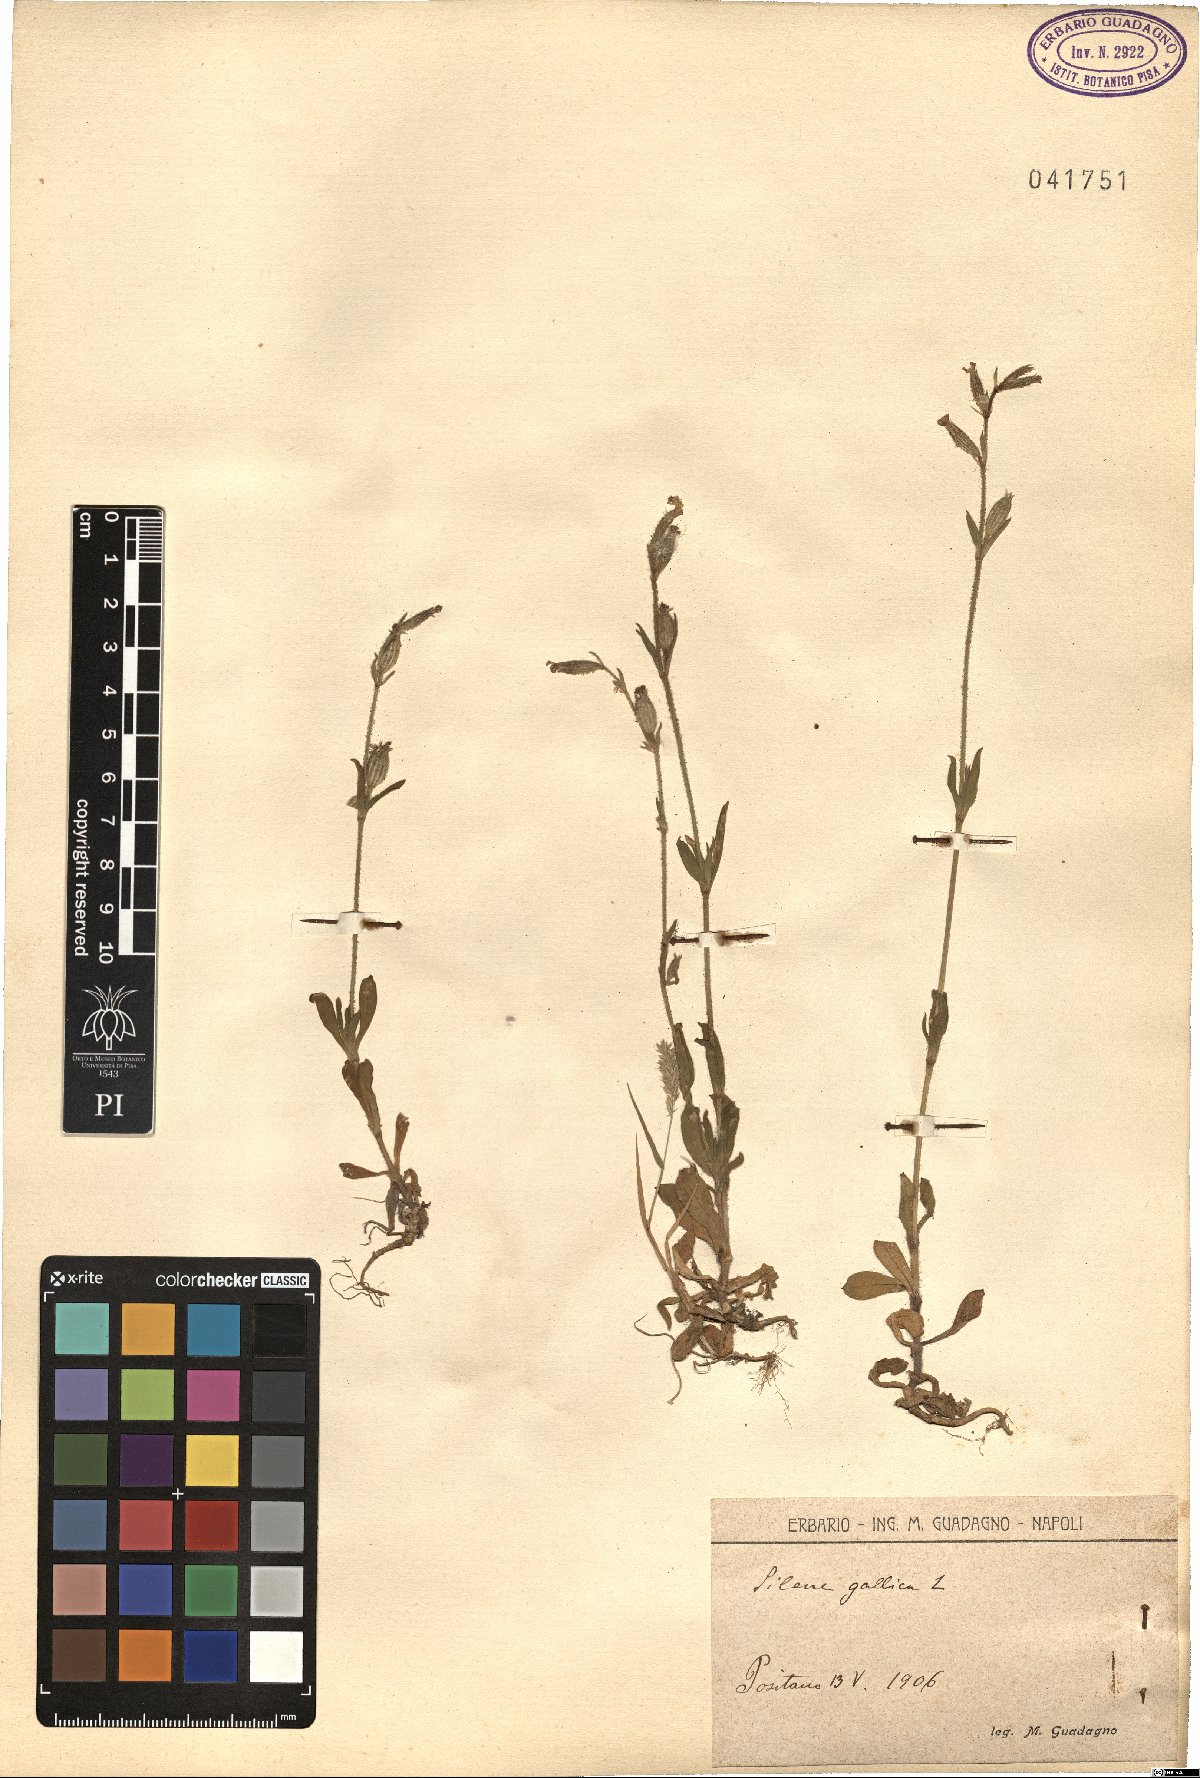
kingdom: Plantae
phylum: Tracheophyta
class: Magnoliopsida
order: Caryophyllales
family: Caryophyllaceae
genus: Silene
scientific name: Silene gallica
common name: Small-flowered catchfly
